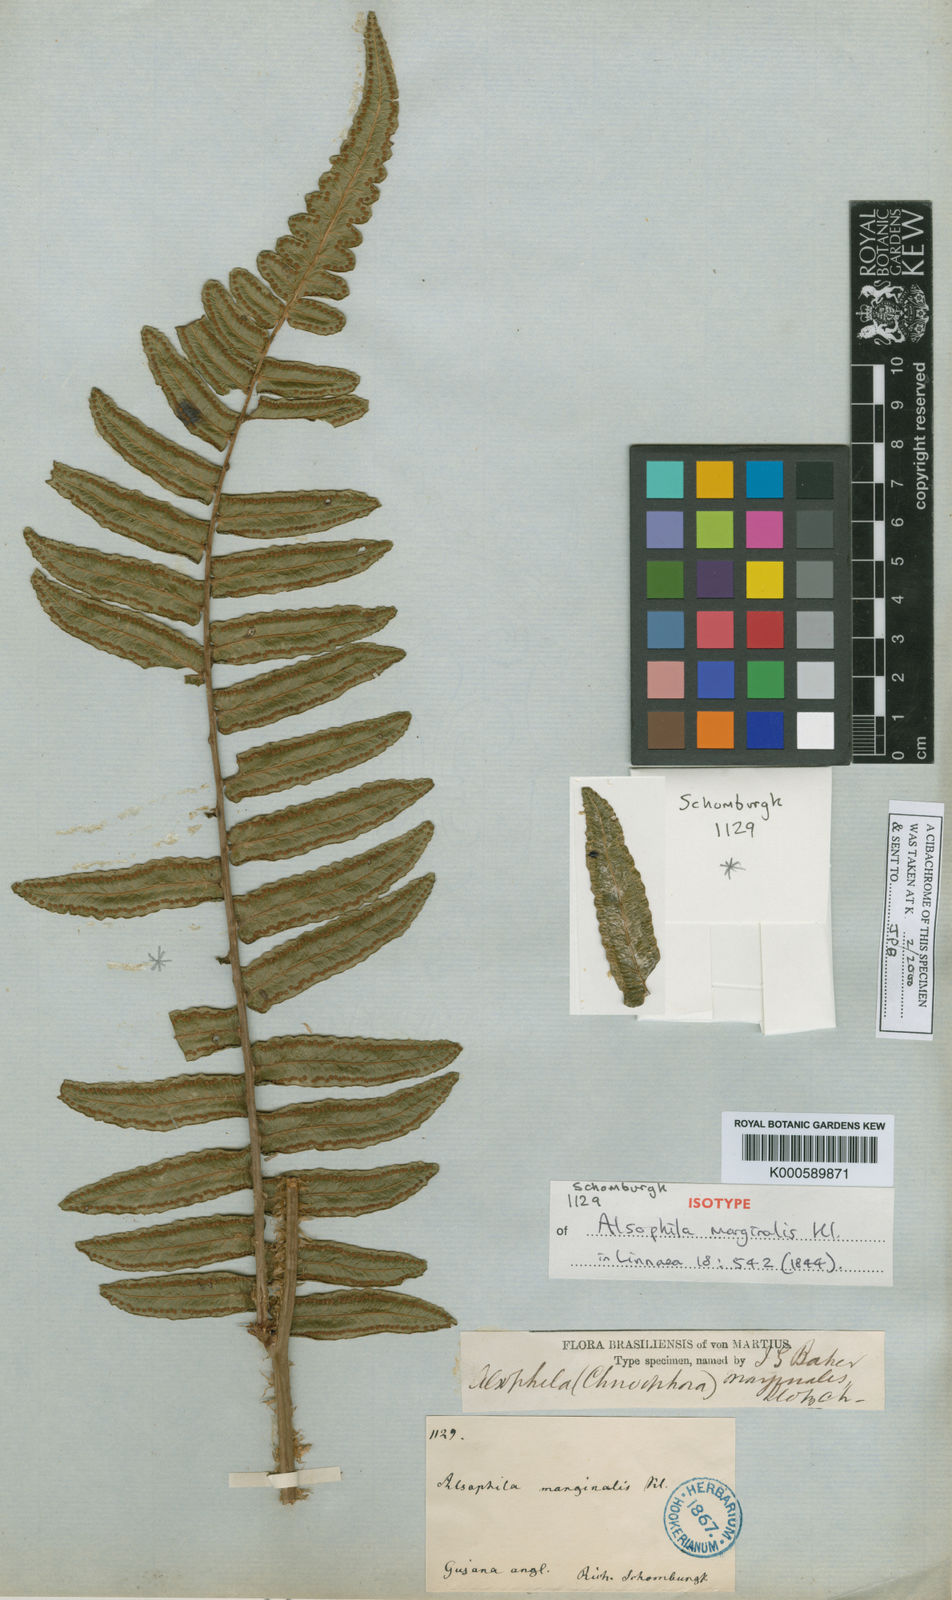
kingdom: Plantae
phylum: Tracheophyta
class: Polypodiopsida
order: Cyatheales
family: Cyatheaceae
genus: Cyathea
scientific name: Cyathea marginalis
